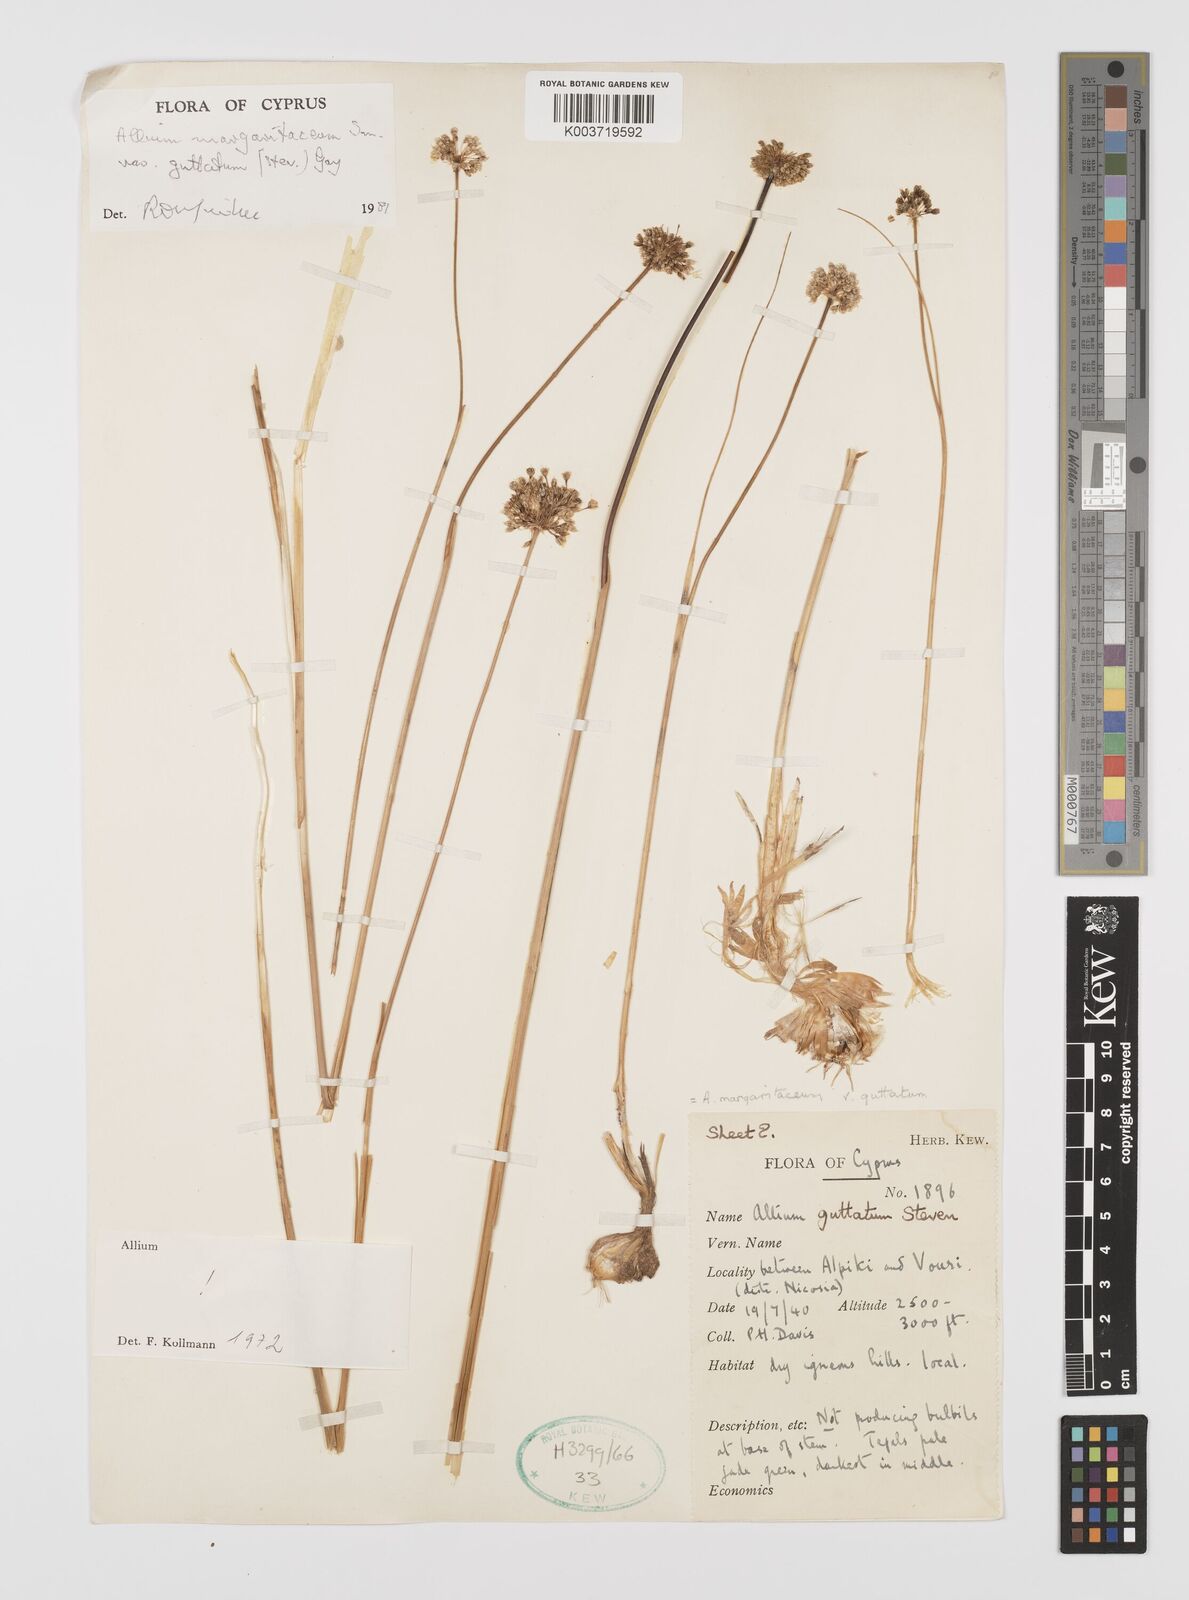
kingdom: Plantae
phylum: Tracheophyta
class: Liliopsida
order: Asparagales
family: Amaryllidaceae
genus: Allium
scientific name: Allium guttatum
